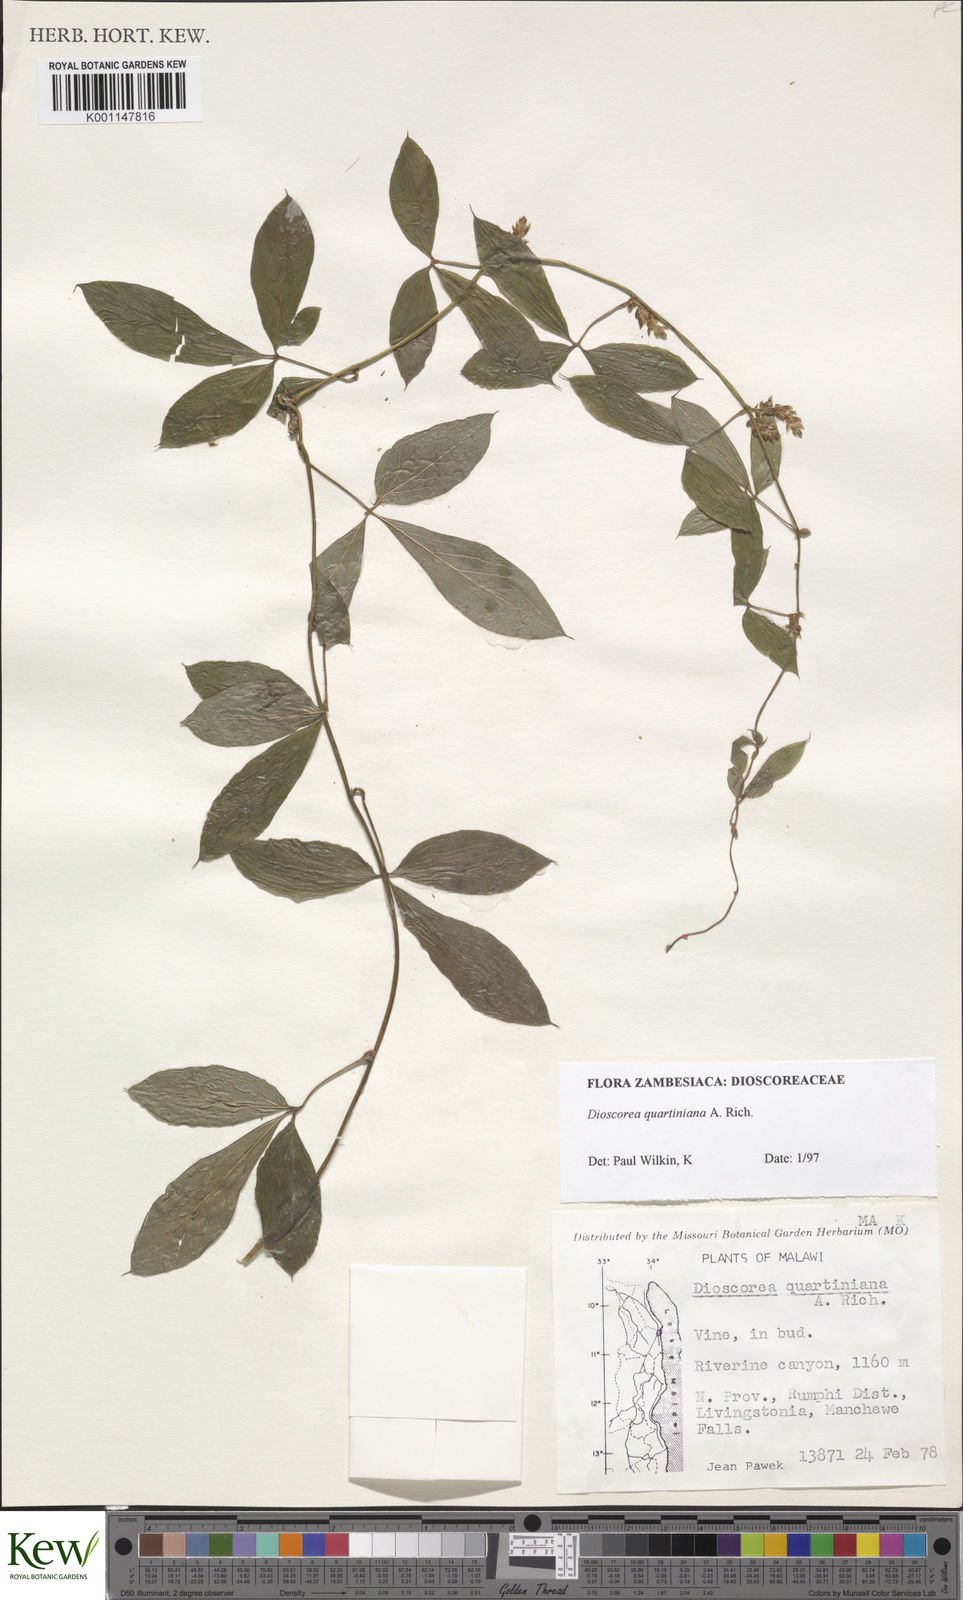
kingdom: Plantae
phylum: Tracheophyta
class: Liliopsida
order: Dioscoreales
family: Dioscoreaceae
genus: Dioscorea
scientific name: Dioscorea quartiniana
